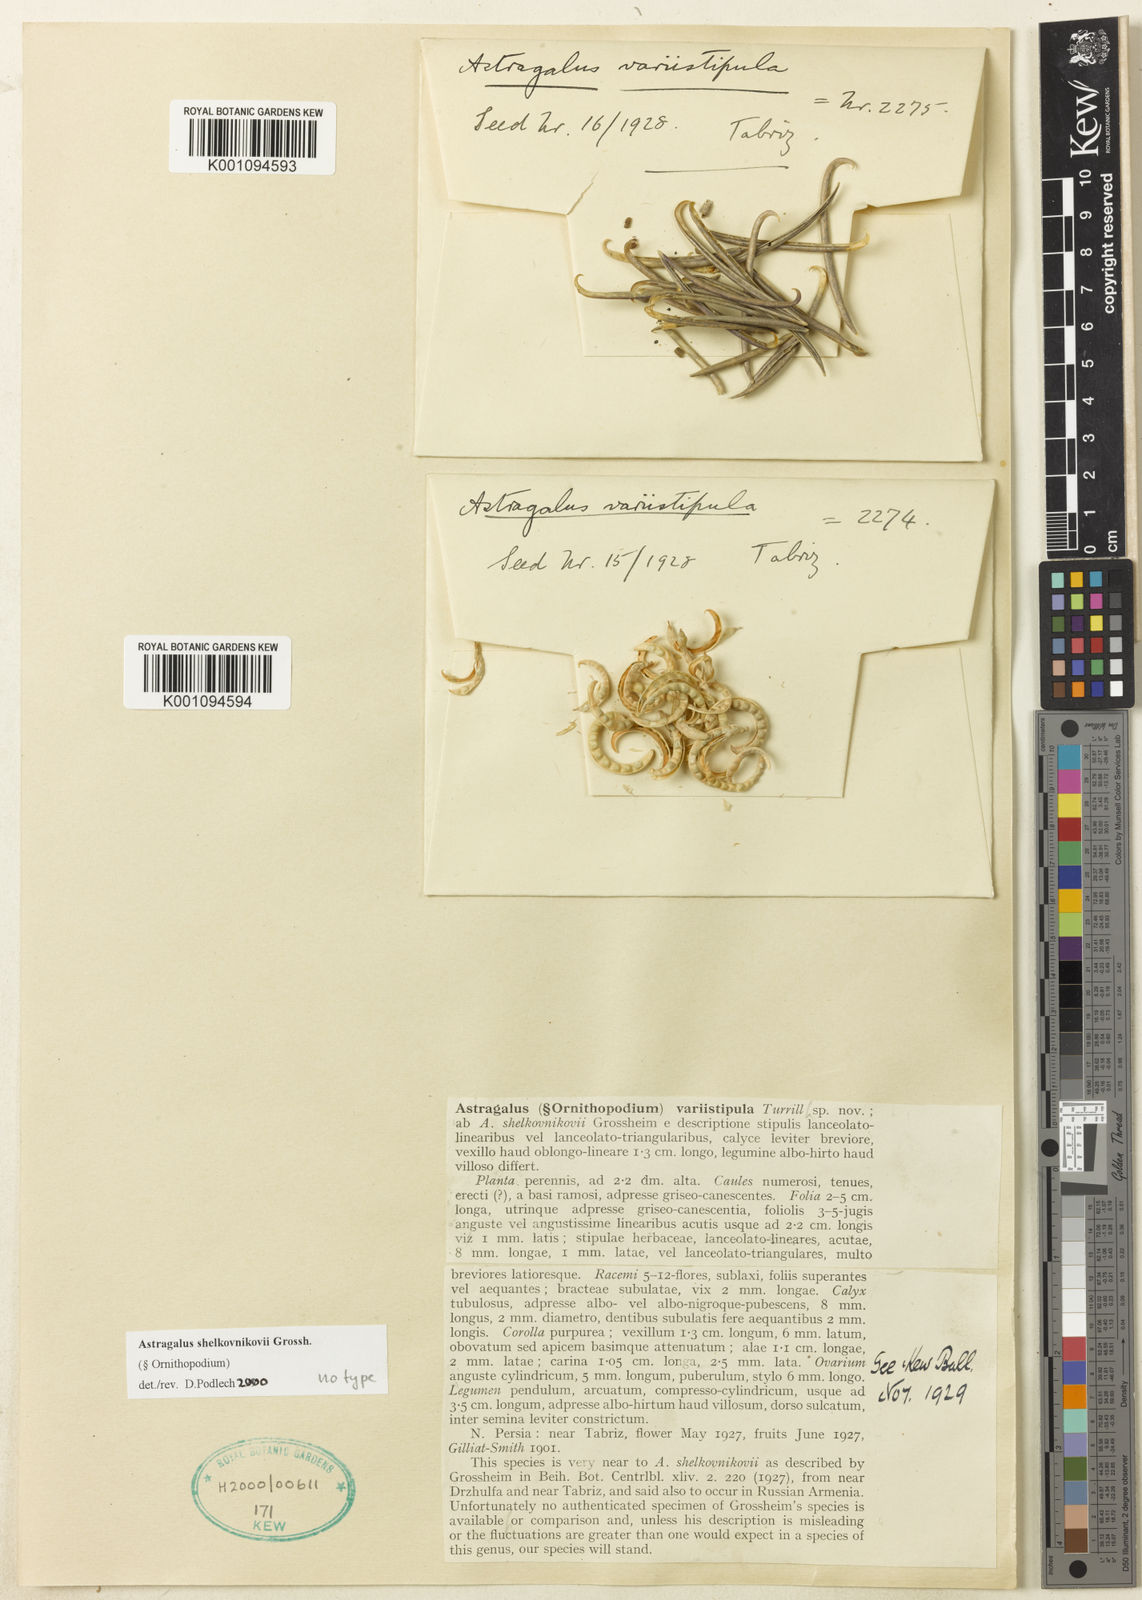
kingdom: Plantae
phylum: Tracheophyta
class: Magnoliopsida
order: Fabales
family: Fabaceae
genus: Astragalus
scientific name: Astragalus
